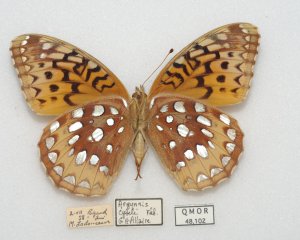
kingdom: Animalia
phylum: Arthropoda
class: Insecta
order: Lepidoptera
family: Nymphalidae
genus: Speyeria
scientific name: Speyeria cybele
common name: Great Spangled Fritillary
